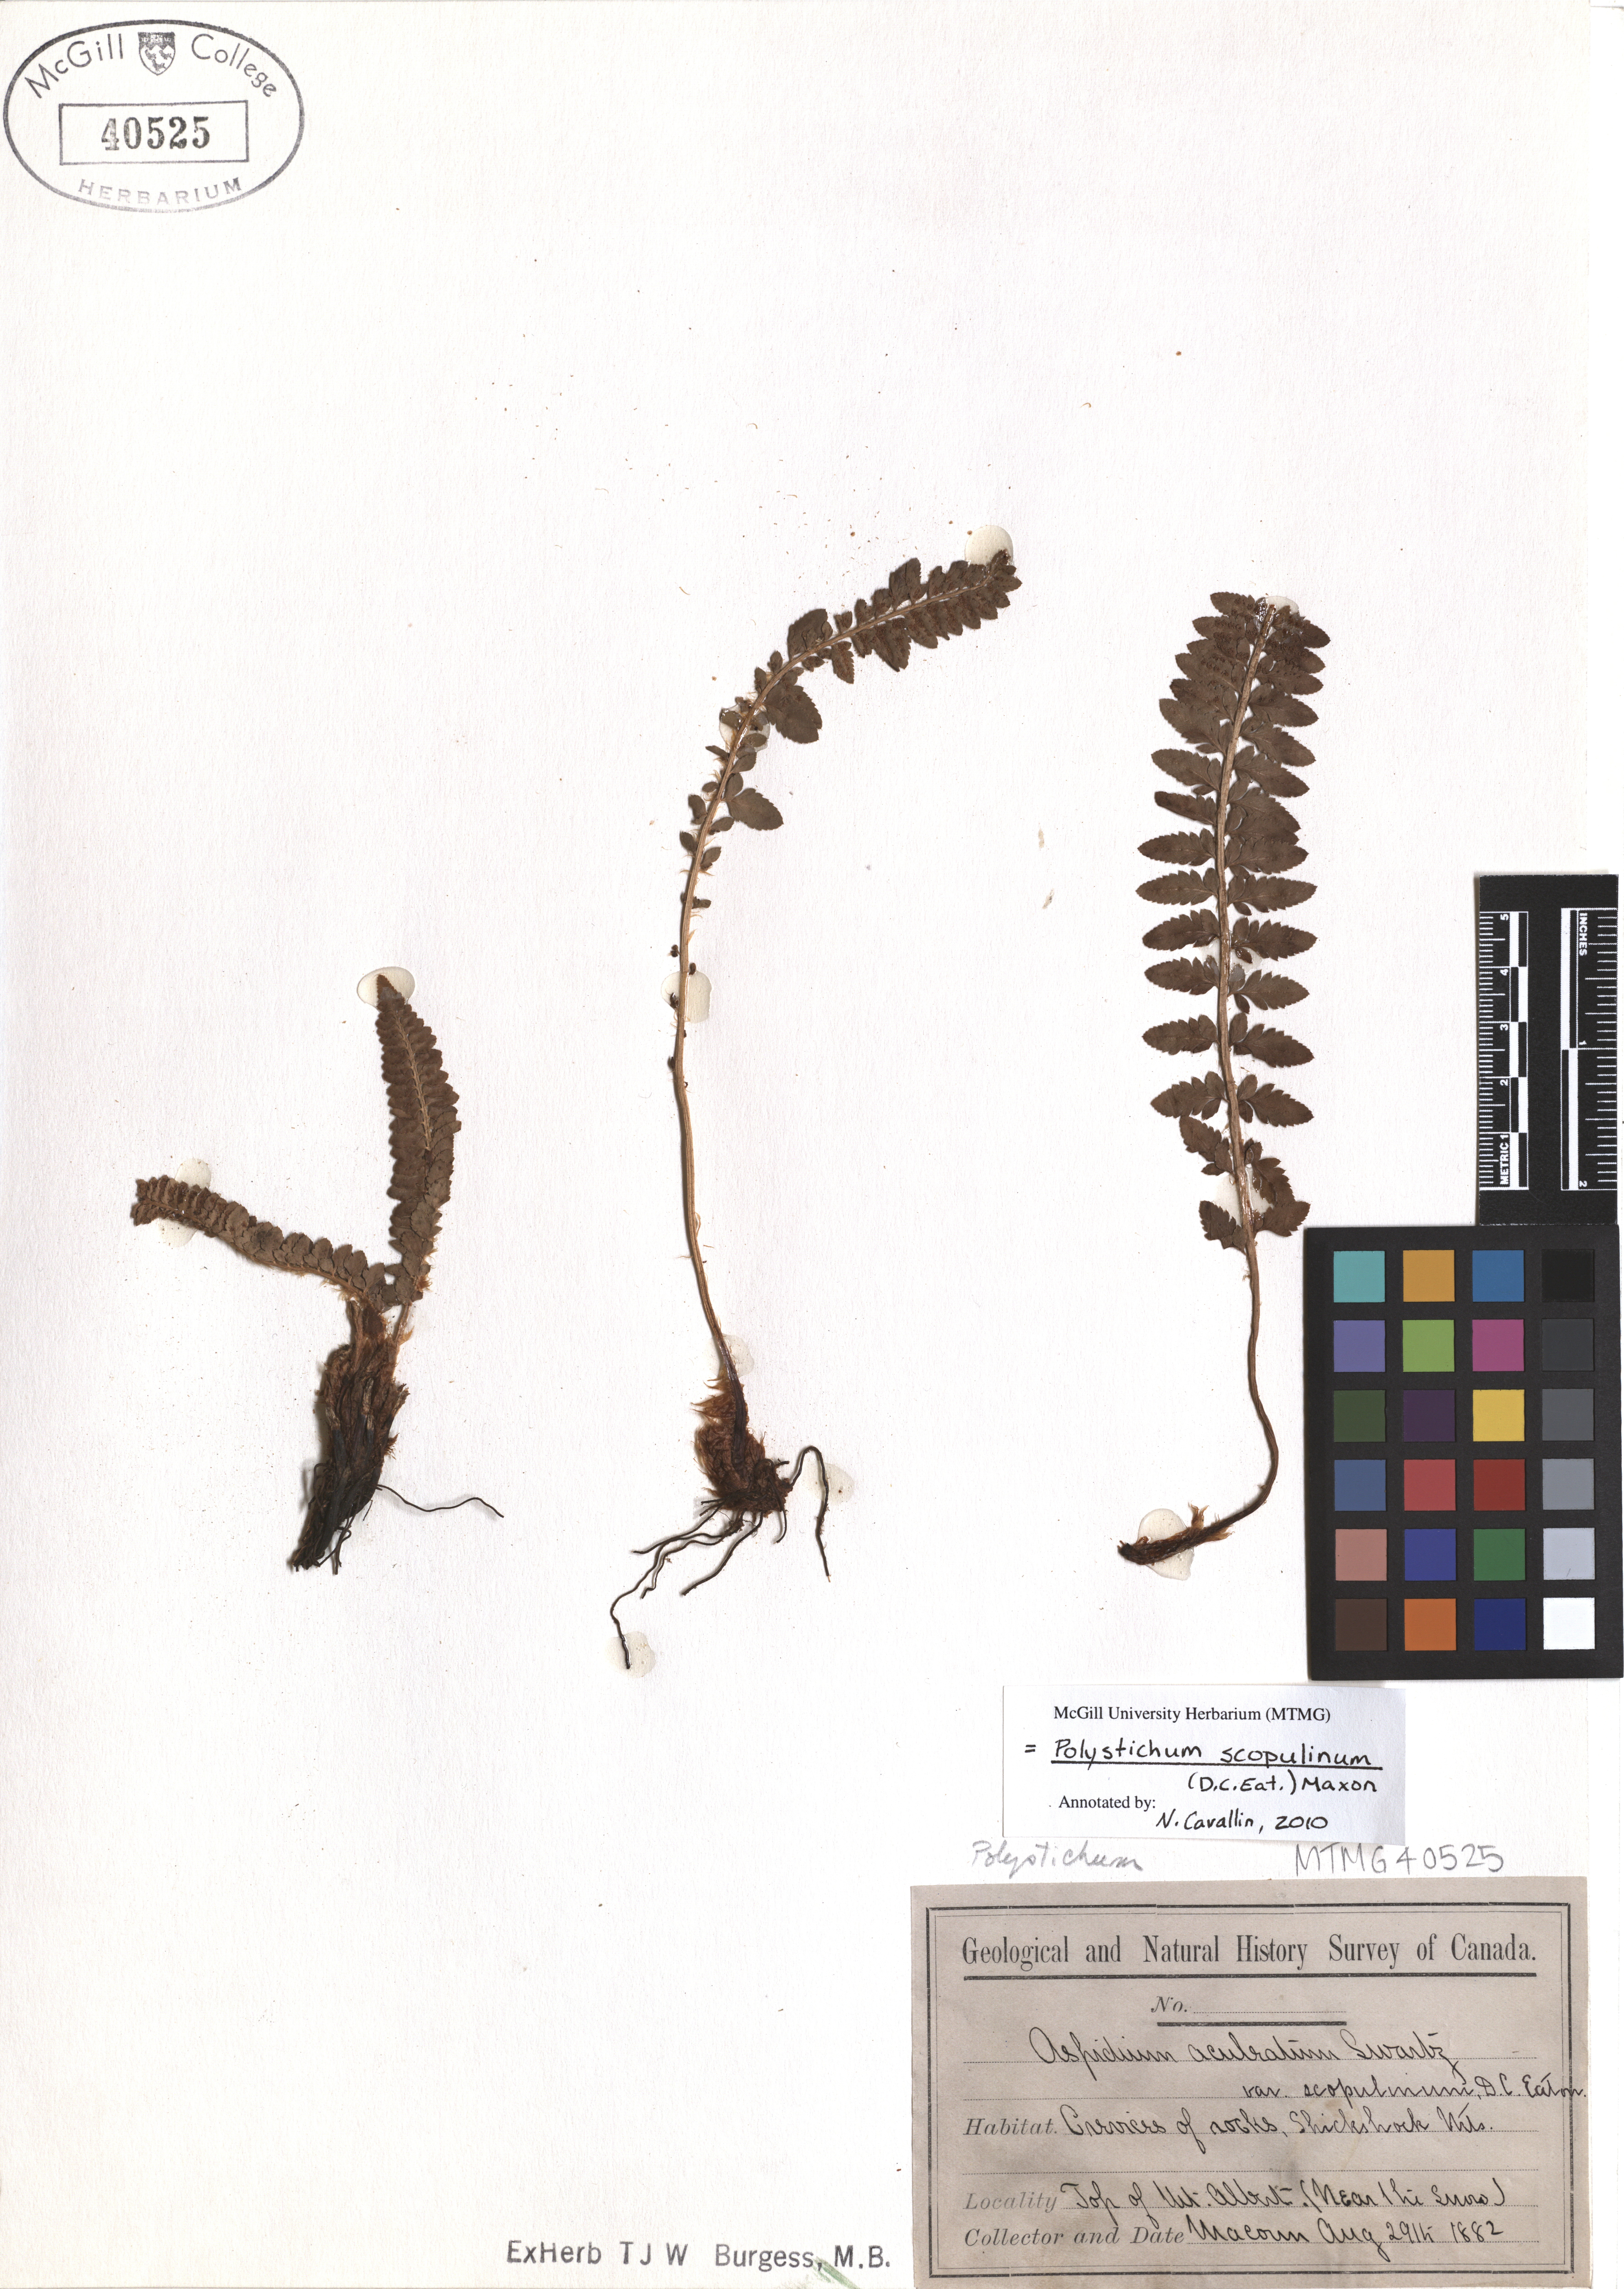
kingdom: Plantae
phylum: Tracheophyta
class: Polypodiopsida
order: Polypodiales
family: Dryopteridaceae
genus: Polystichum
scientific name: Polystichum scopulinum
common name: Eaton's shield fern
